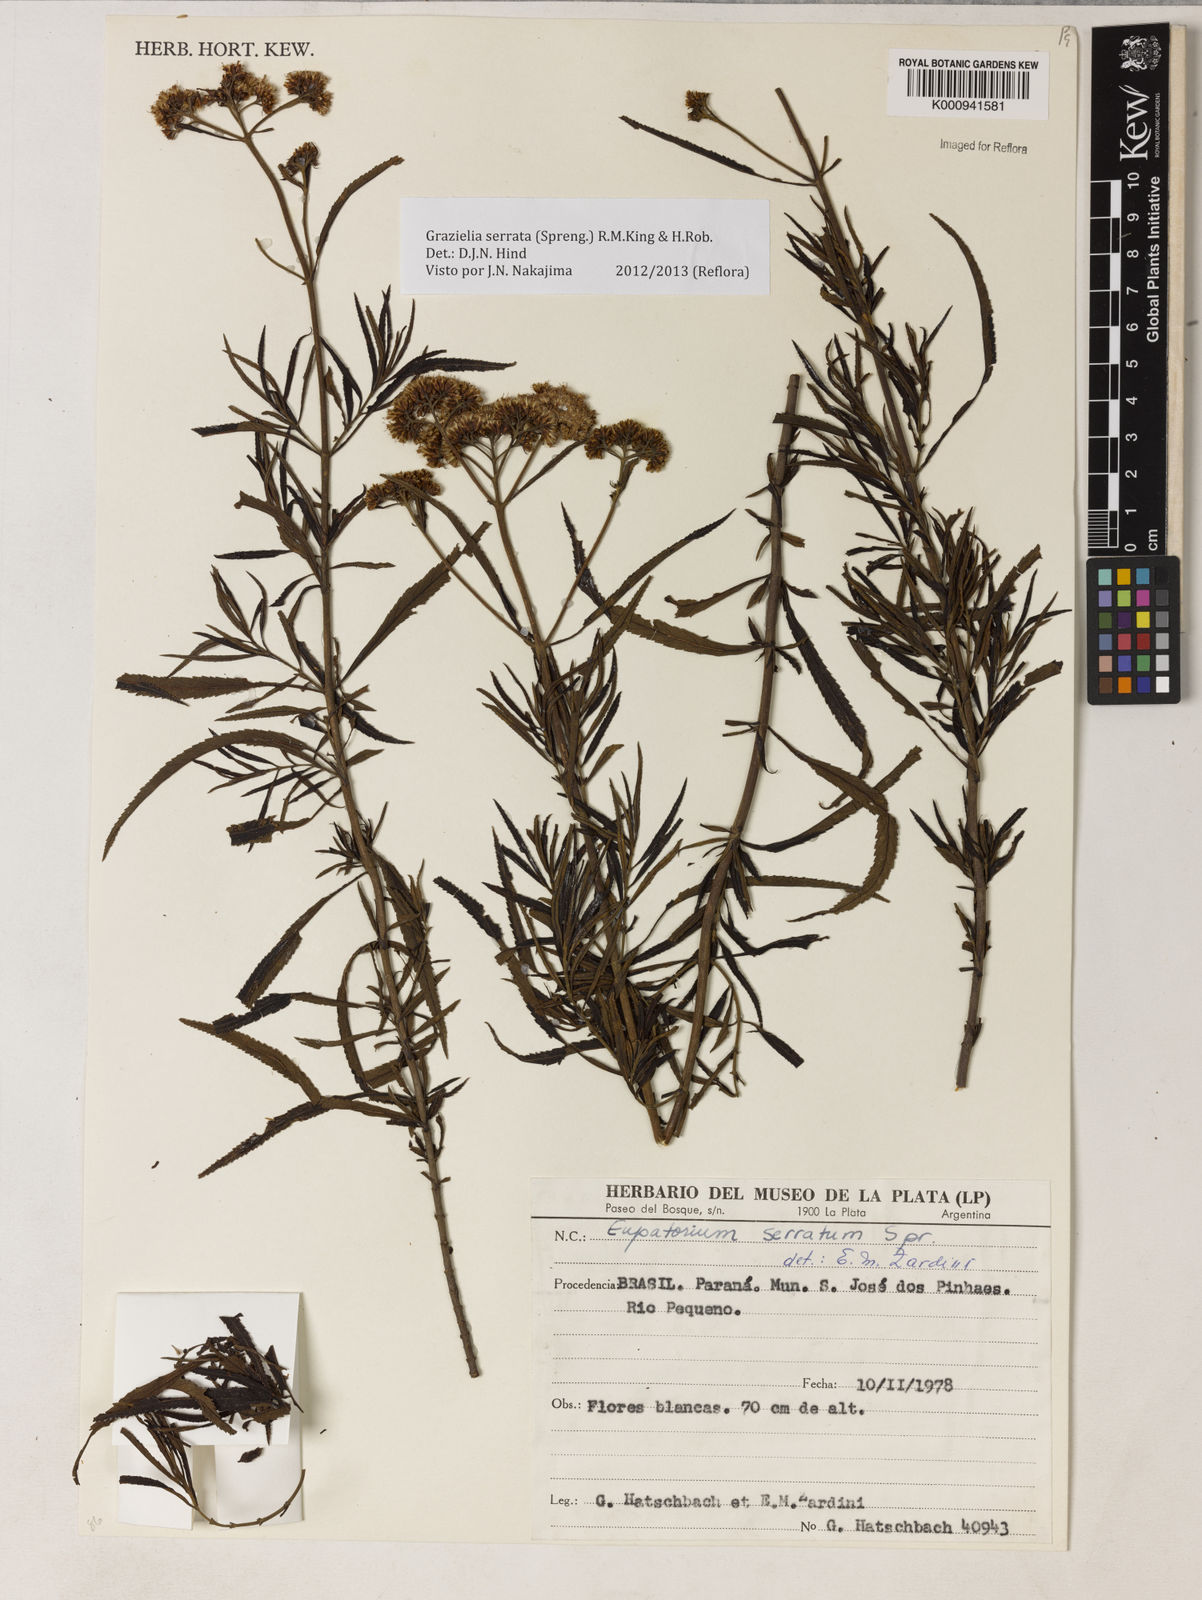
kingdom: Plantae
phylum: Tracheophyta
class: Magnoliopsida
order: Asterales
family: Asteraceae
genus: Grazielia
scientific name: Grazielia serrata
